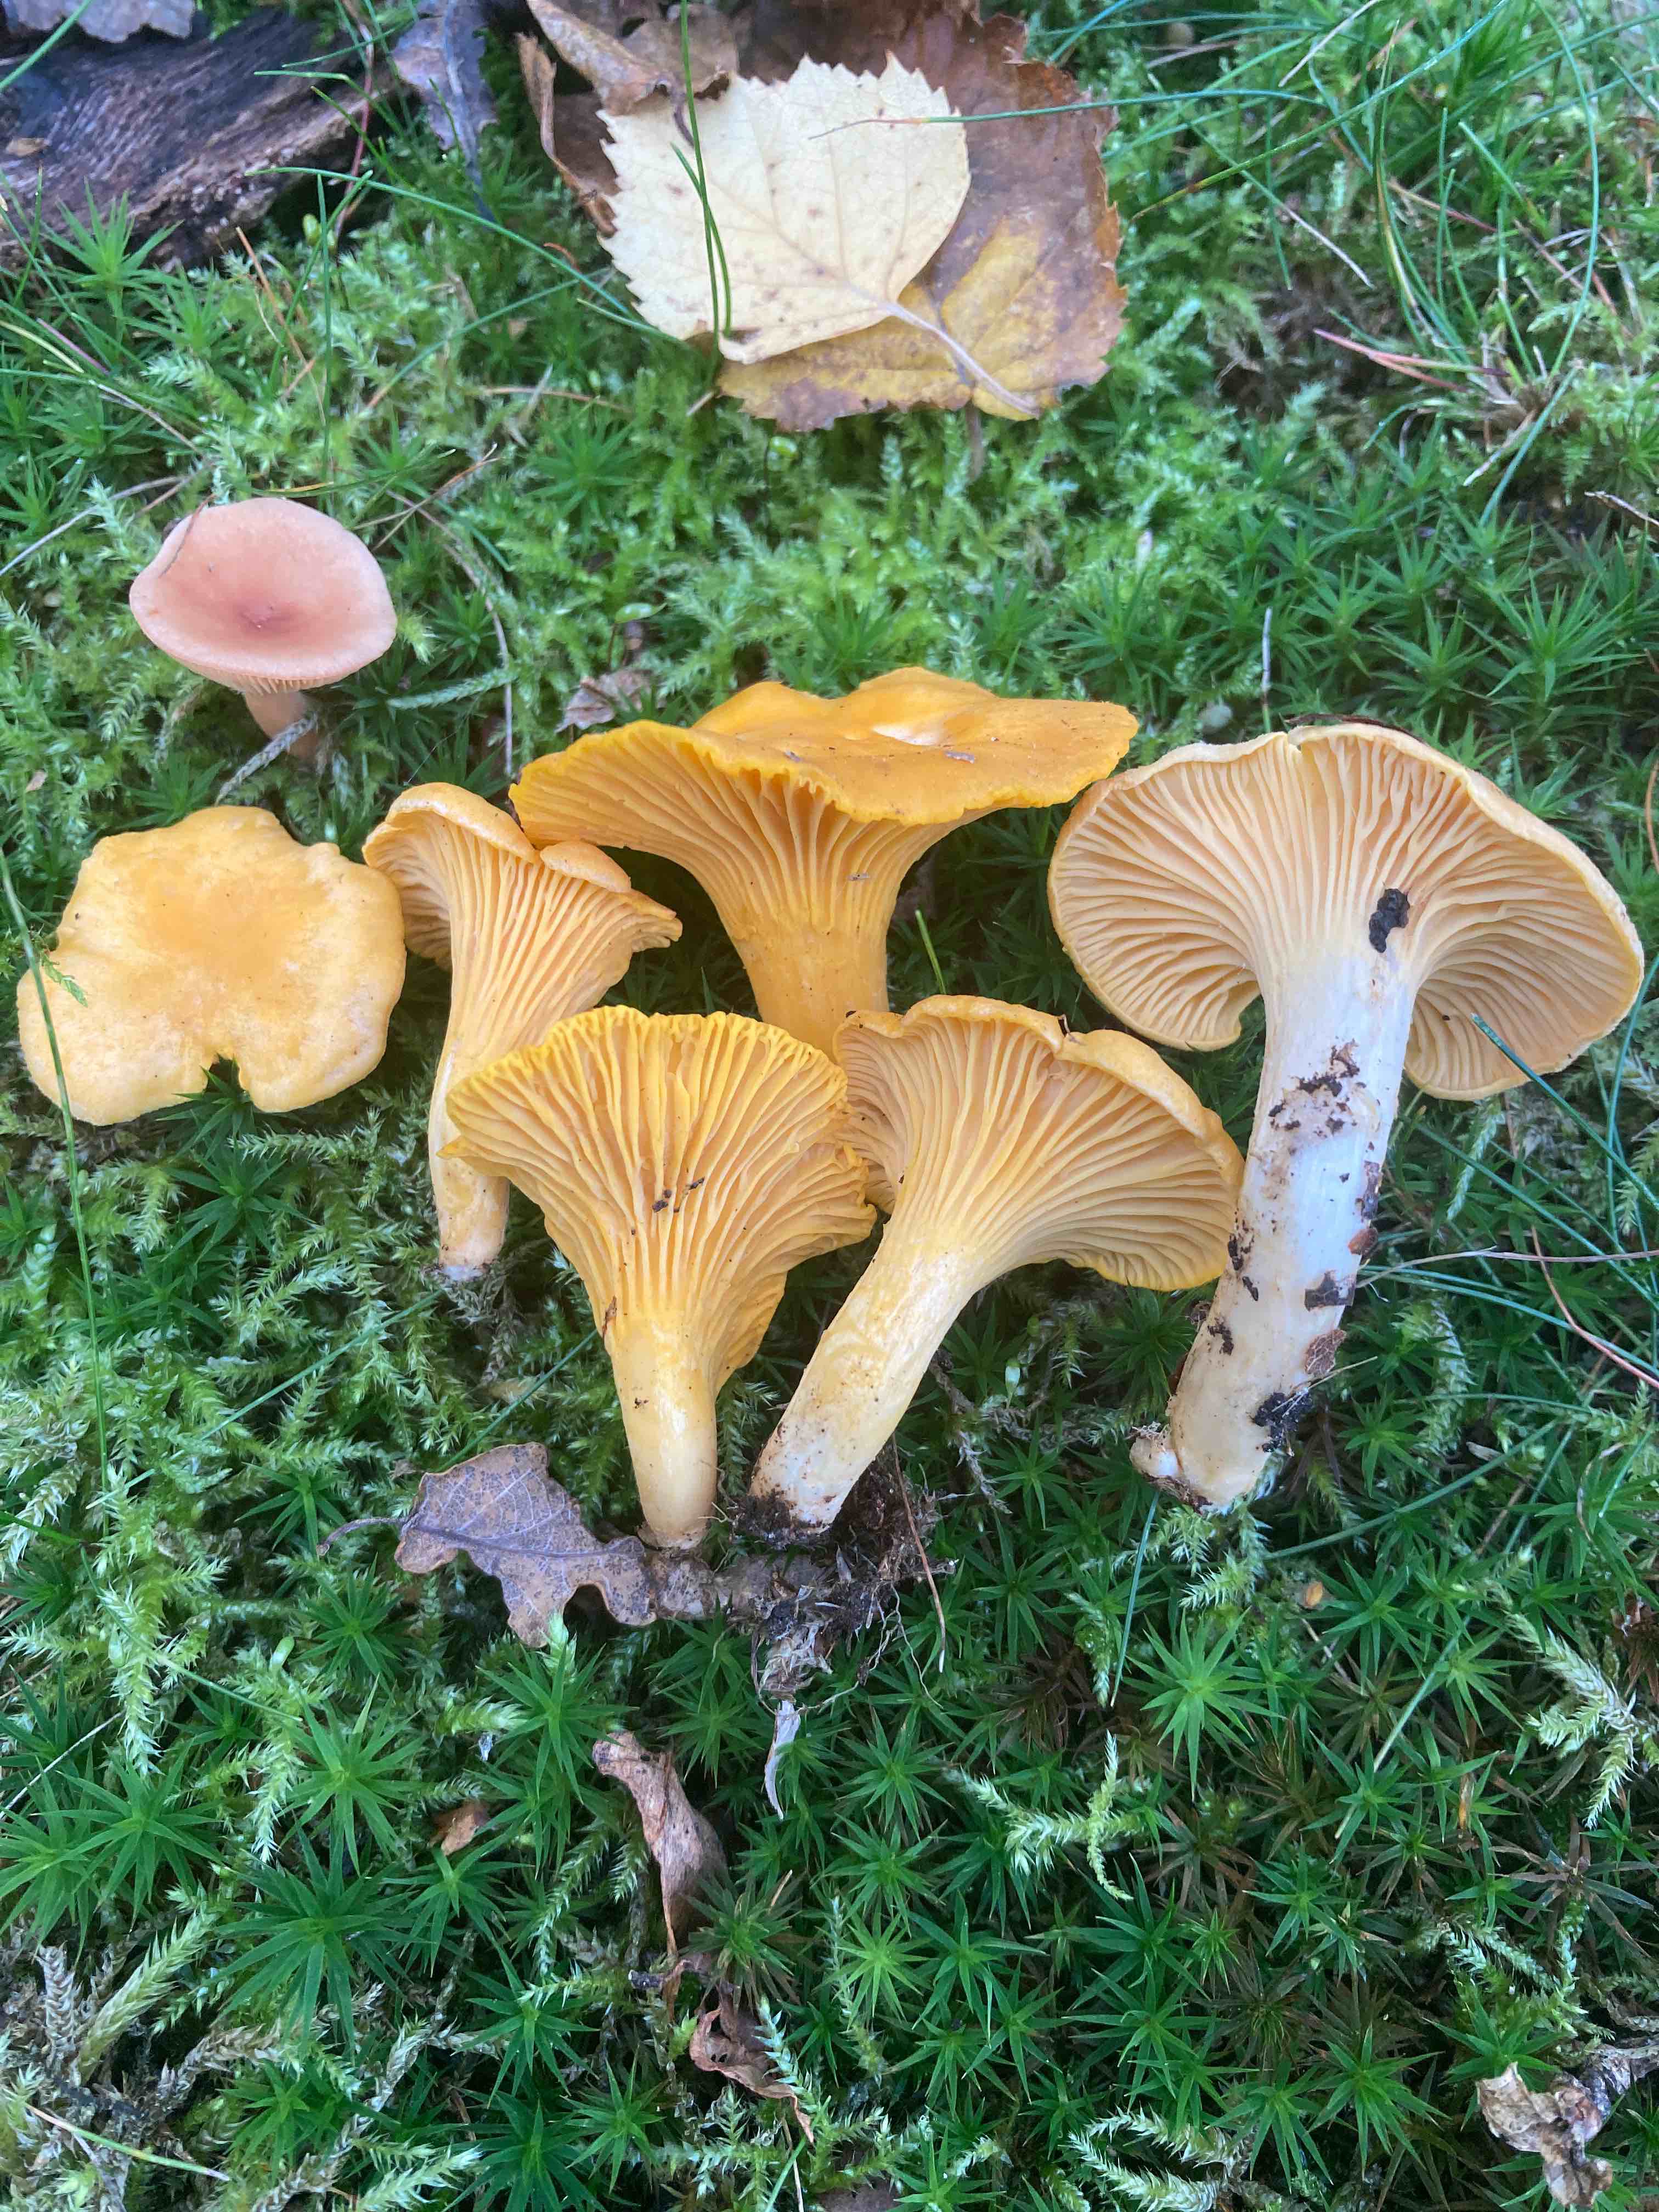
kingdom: Fungi
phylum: Basidiomycota
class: Agaricomycetes
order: Cantharellales
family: Hydnaceae
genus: Cantharellus
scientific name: Cantharellus cibarius
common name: almindelig kantarel
